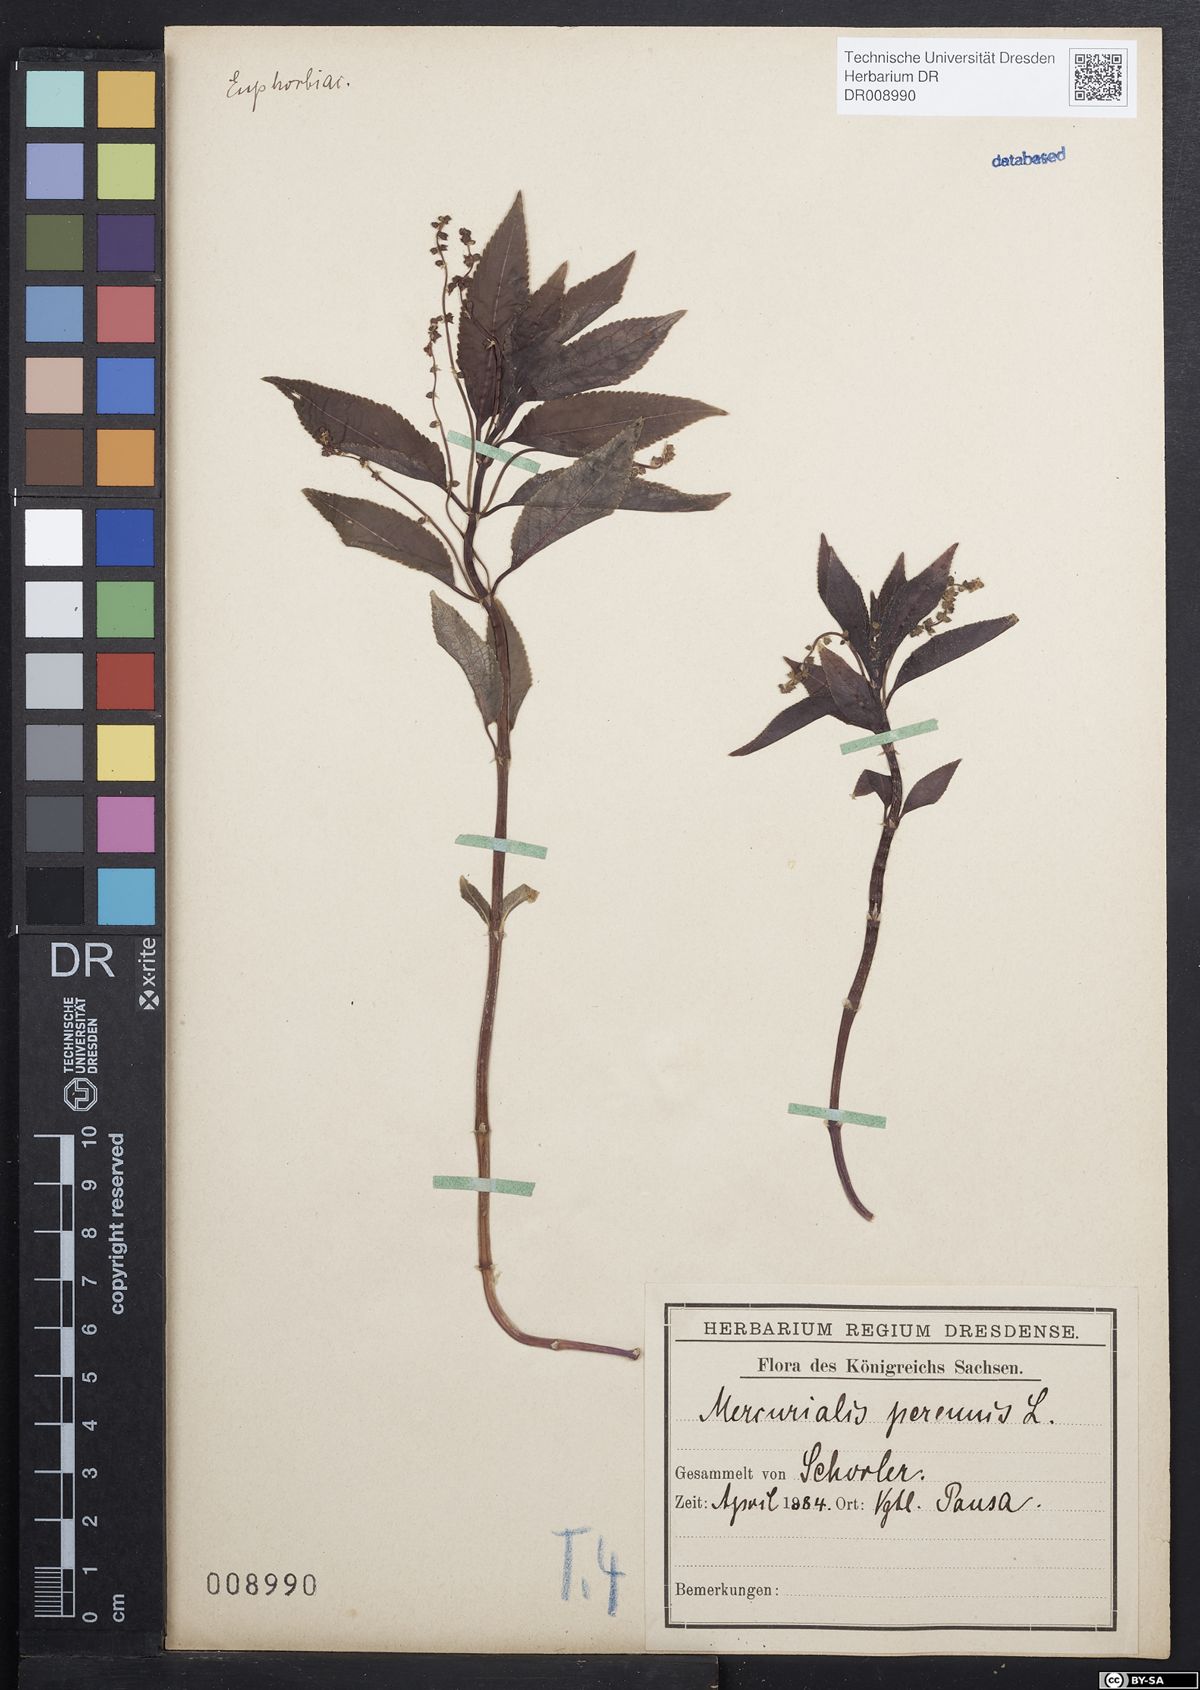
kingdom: Plantae
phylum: Tracheophyta
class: Magnoliopsida
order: Malpighiales
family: Euphorbiaceae
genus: Mercurialis
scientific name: Mercurialis perennis
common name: Dog mercury
